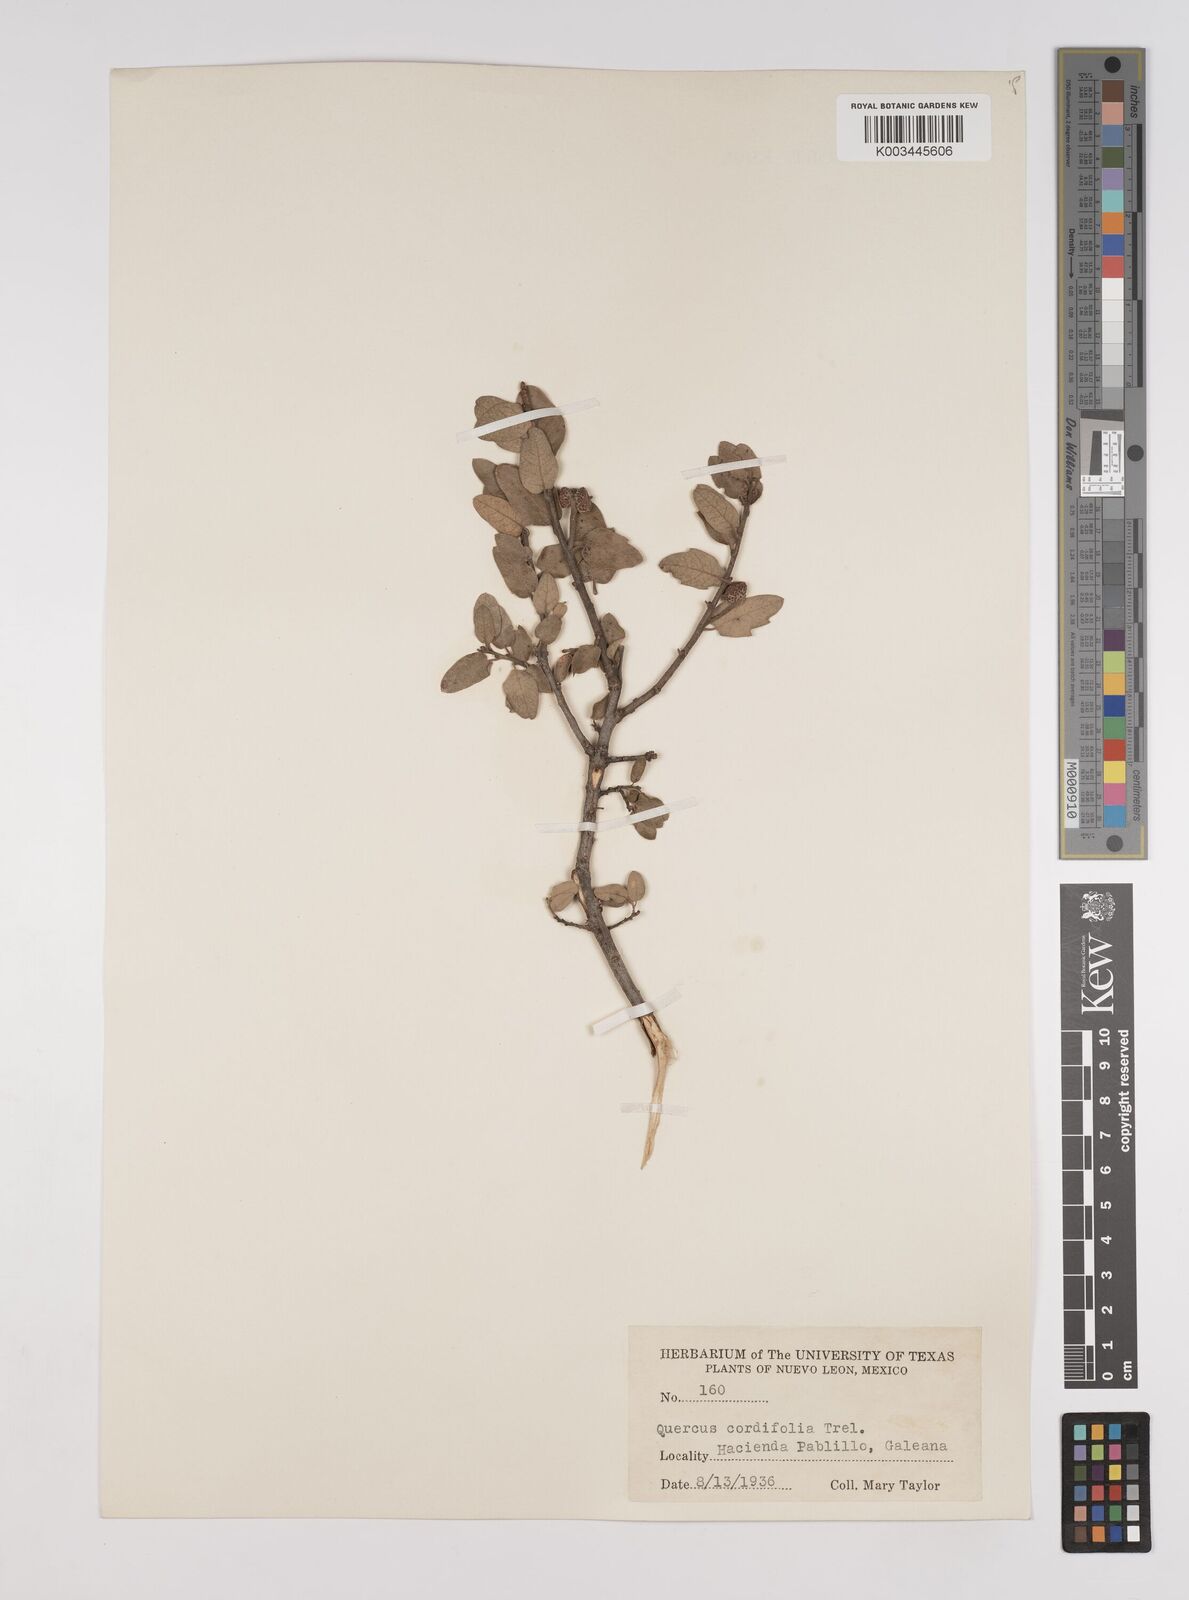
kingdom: Plantae
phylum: Tracheophyta
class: Magnoliopsida
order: Fagales
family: Fagaceae
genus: Quercus
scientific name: Quercus striatula
